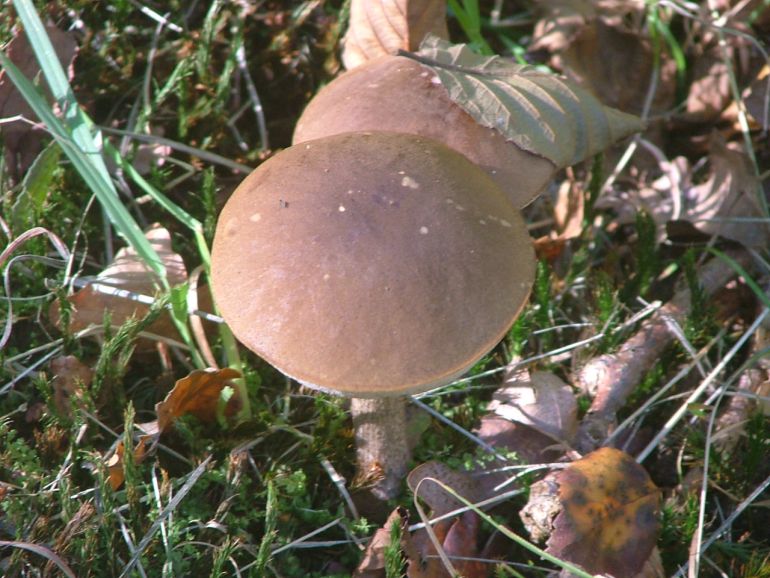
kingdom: Fungi
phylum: Basidiomycota
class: Agaricomycetes
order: Boletales
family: Boletaceae
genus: Leccinum
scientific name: Leccinum scabrum
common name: brun skælrørhat
